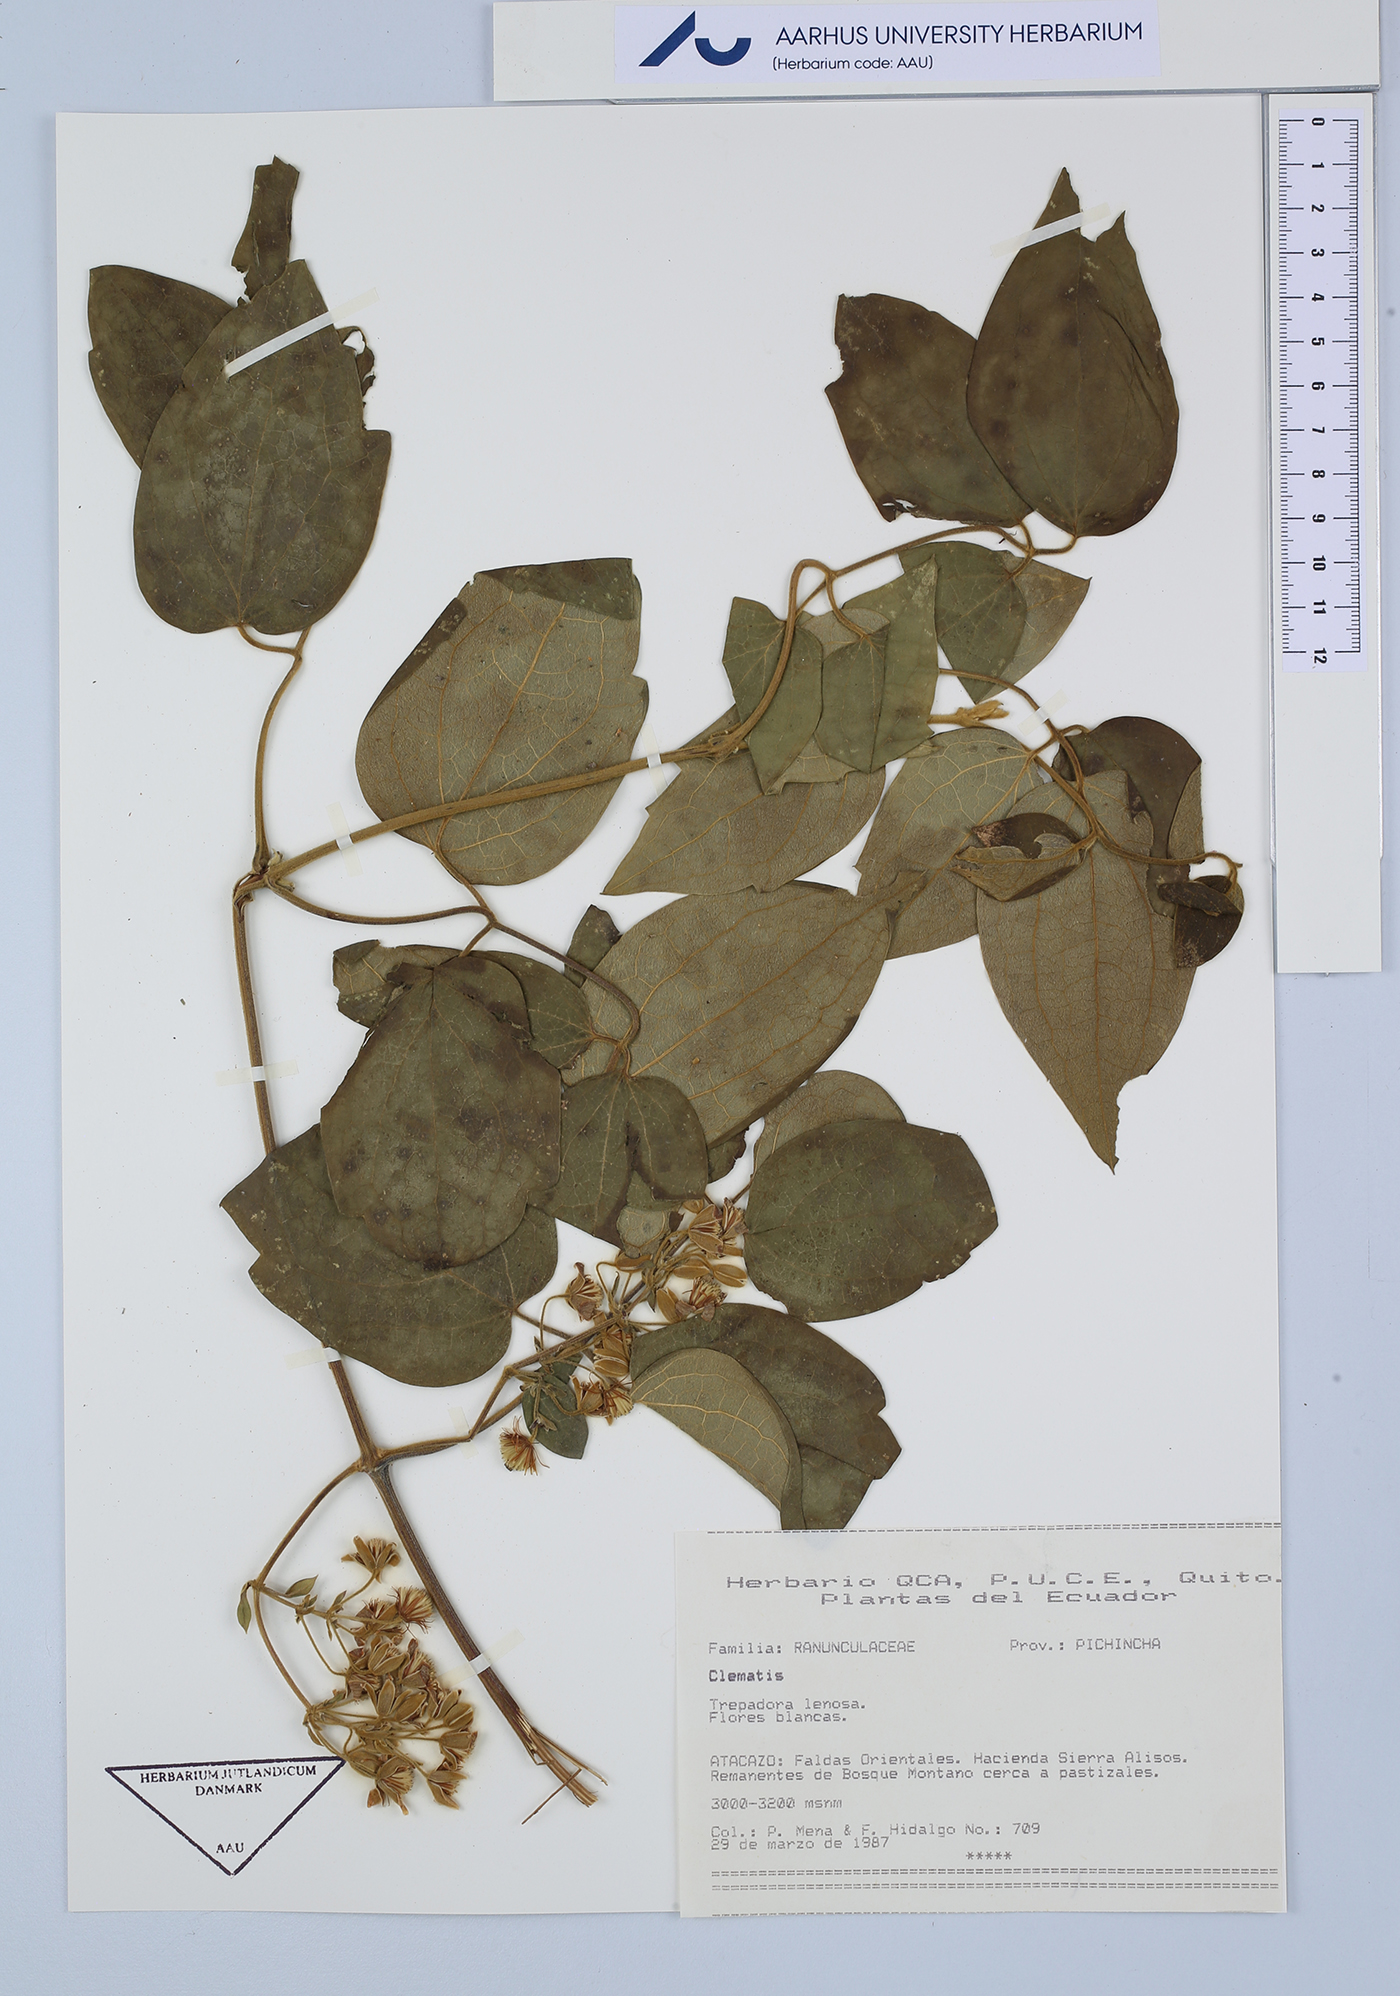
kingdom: Plantae
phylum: Tracheophyta
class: Magnoliopsida
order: Ranunculales
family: Ranunculaceae
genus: Clematis
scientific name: Clematis
